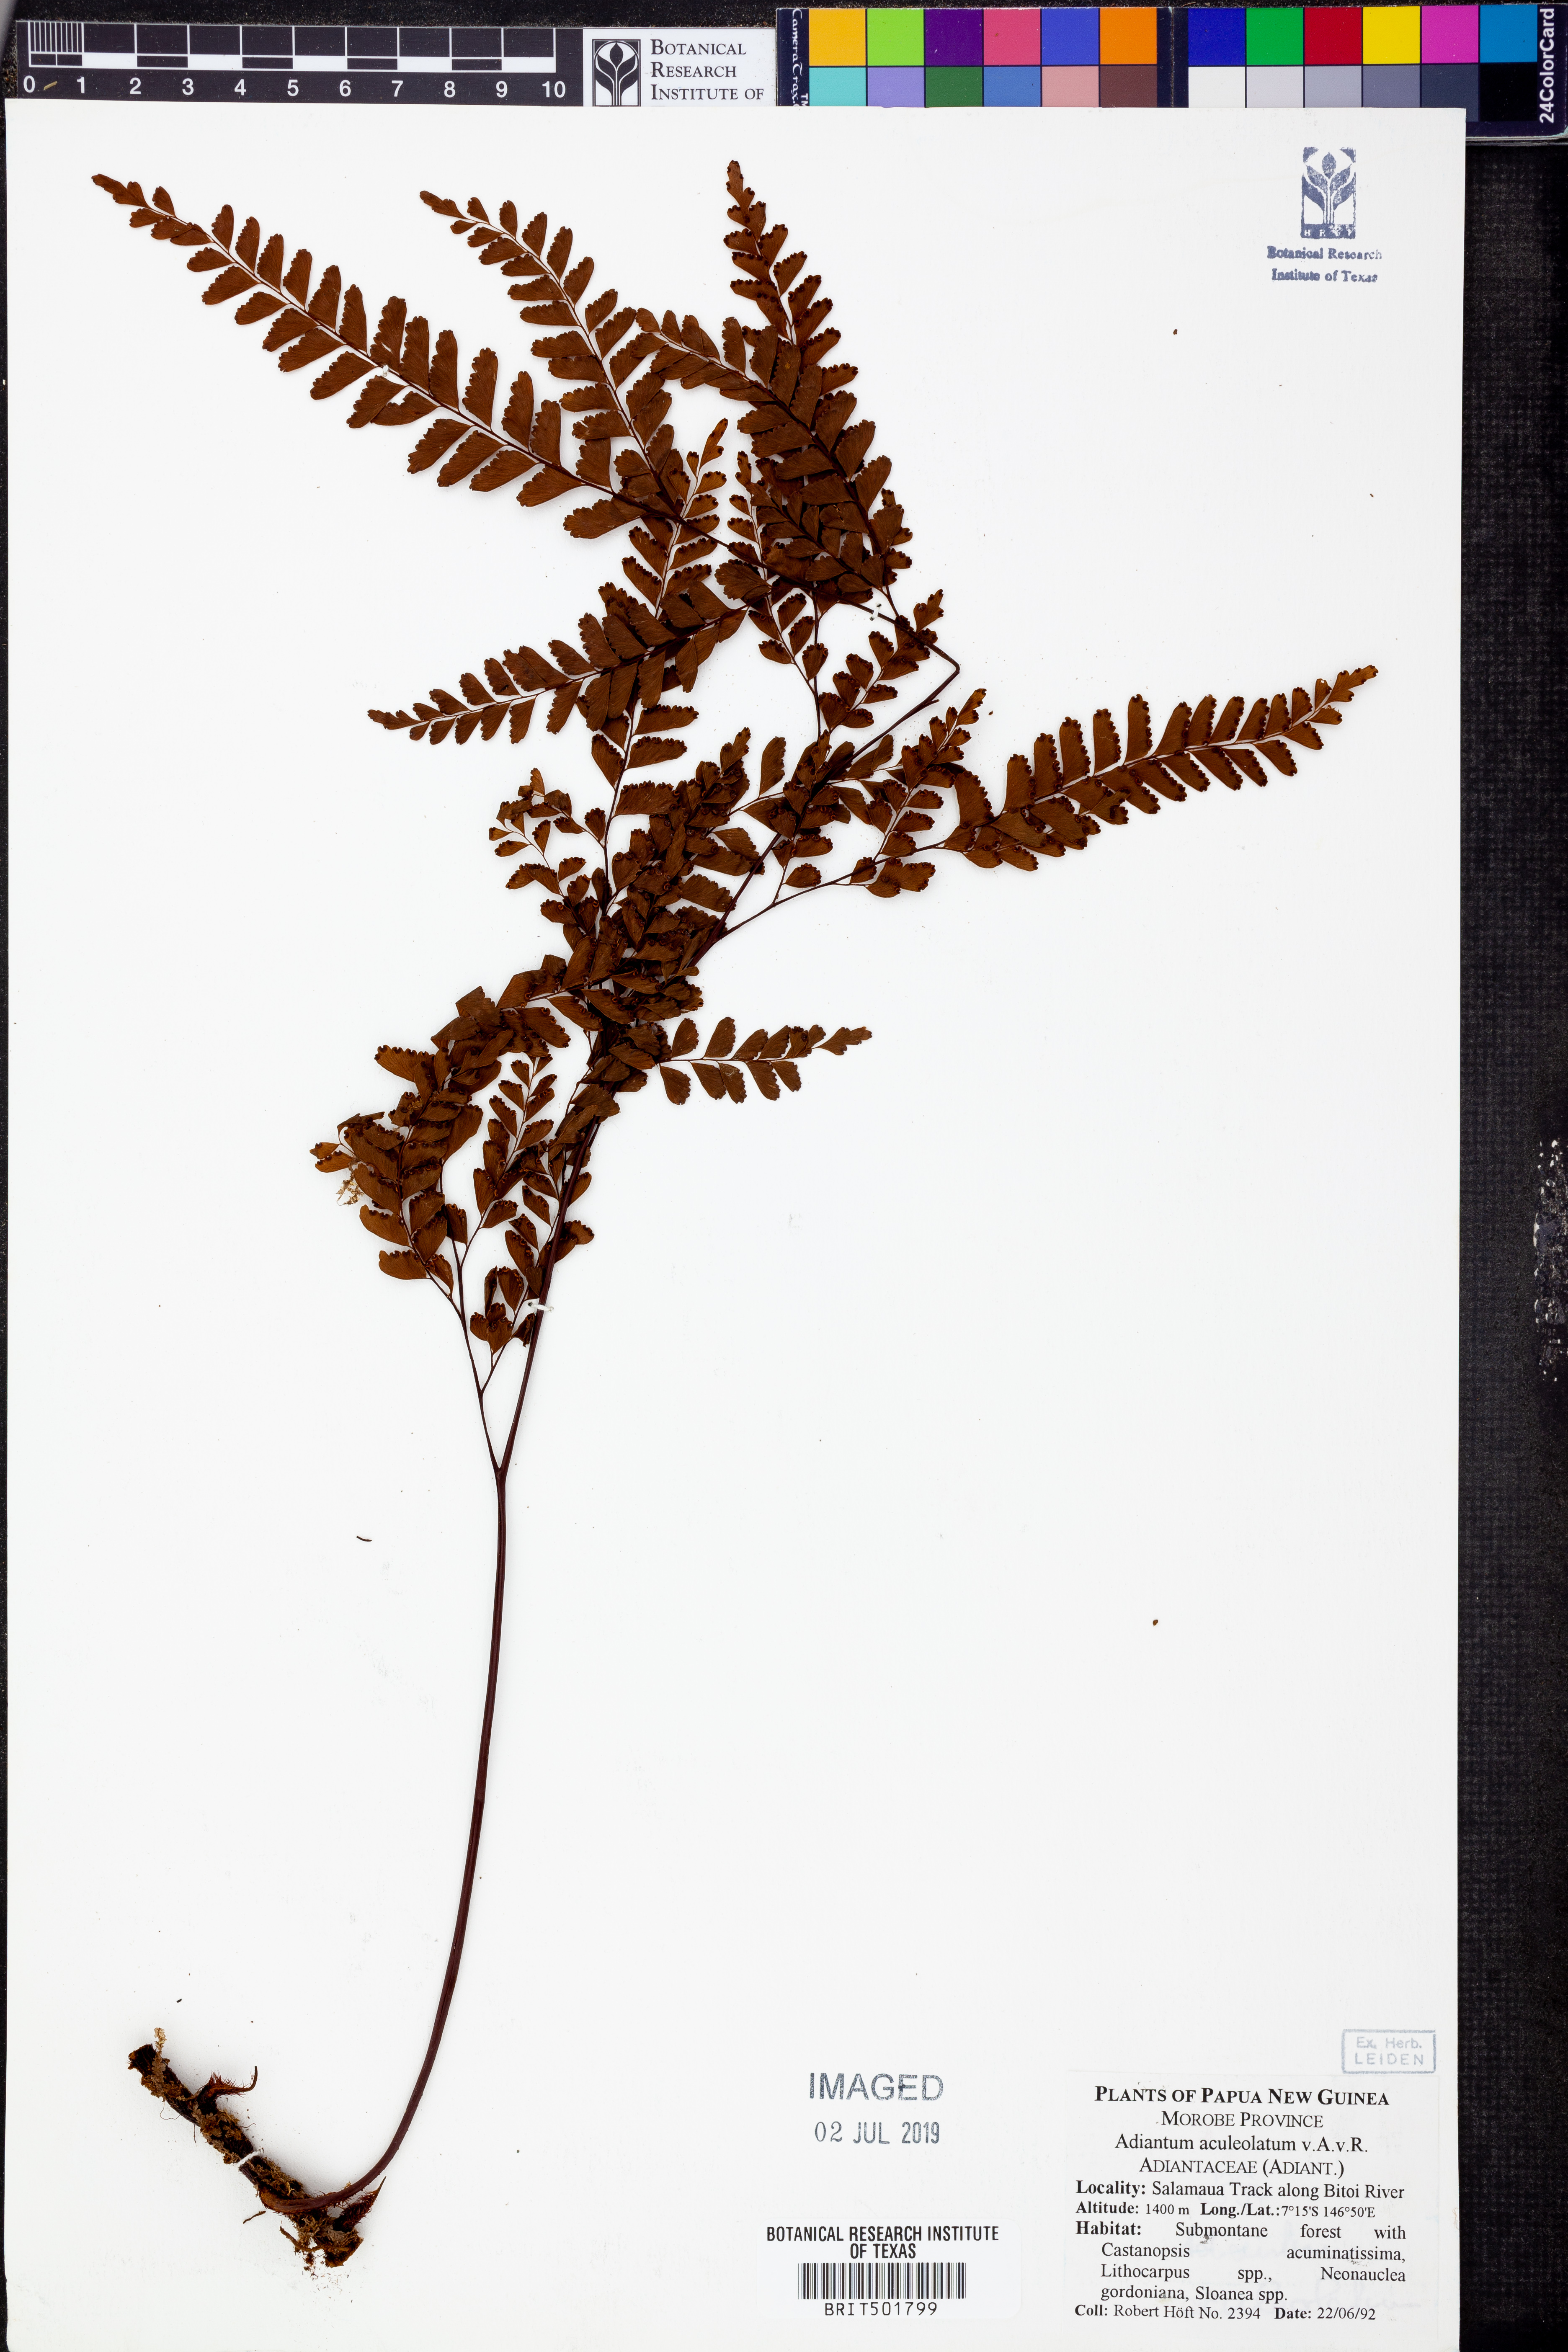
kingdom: Plantae
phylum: Tracheophyta
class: Polypodiopsida
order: Polypodiales
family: Pteridaceae
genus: Adiantum
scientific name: Adiantum mindanaoense
